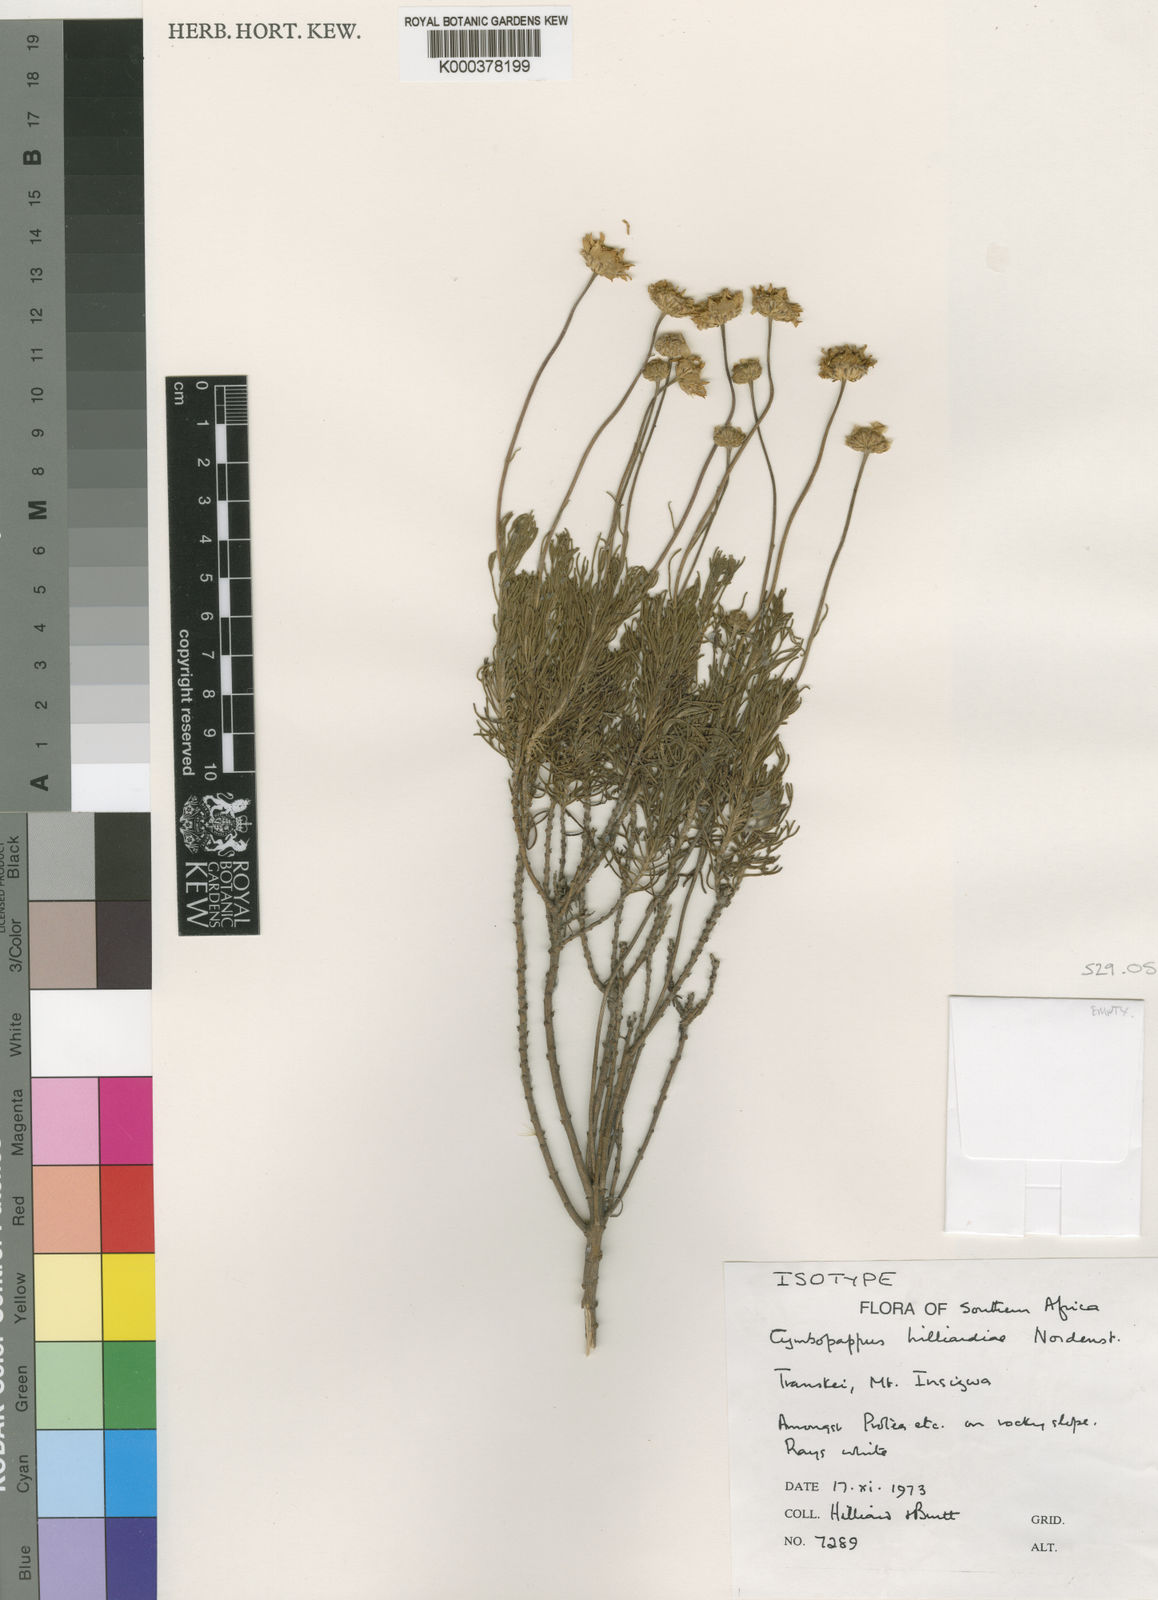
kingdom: Plantae
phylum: Tracheophyta
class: Magnoliopsida
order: Asterales
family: Asteraceae
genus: Cymbopappus
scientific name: Cymbopappus hilliardiae
